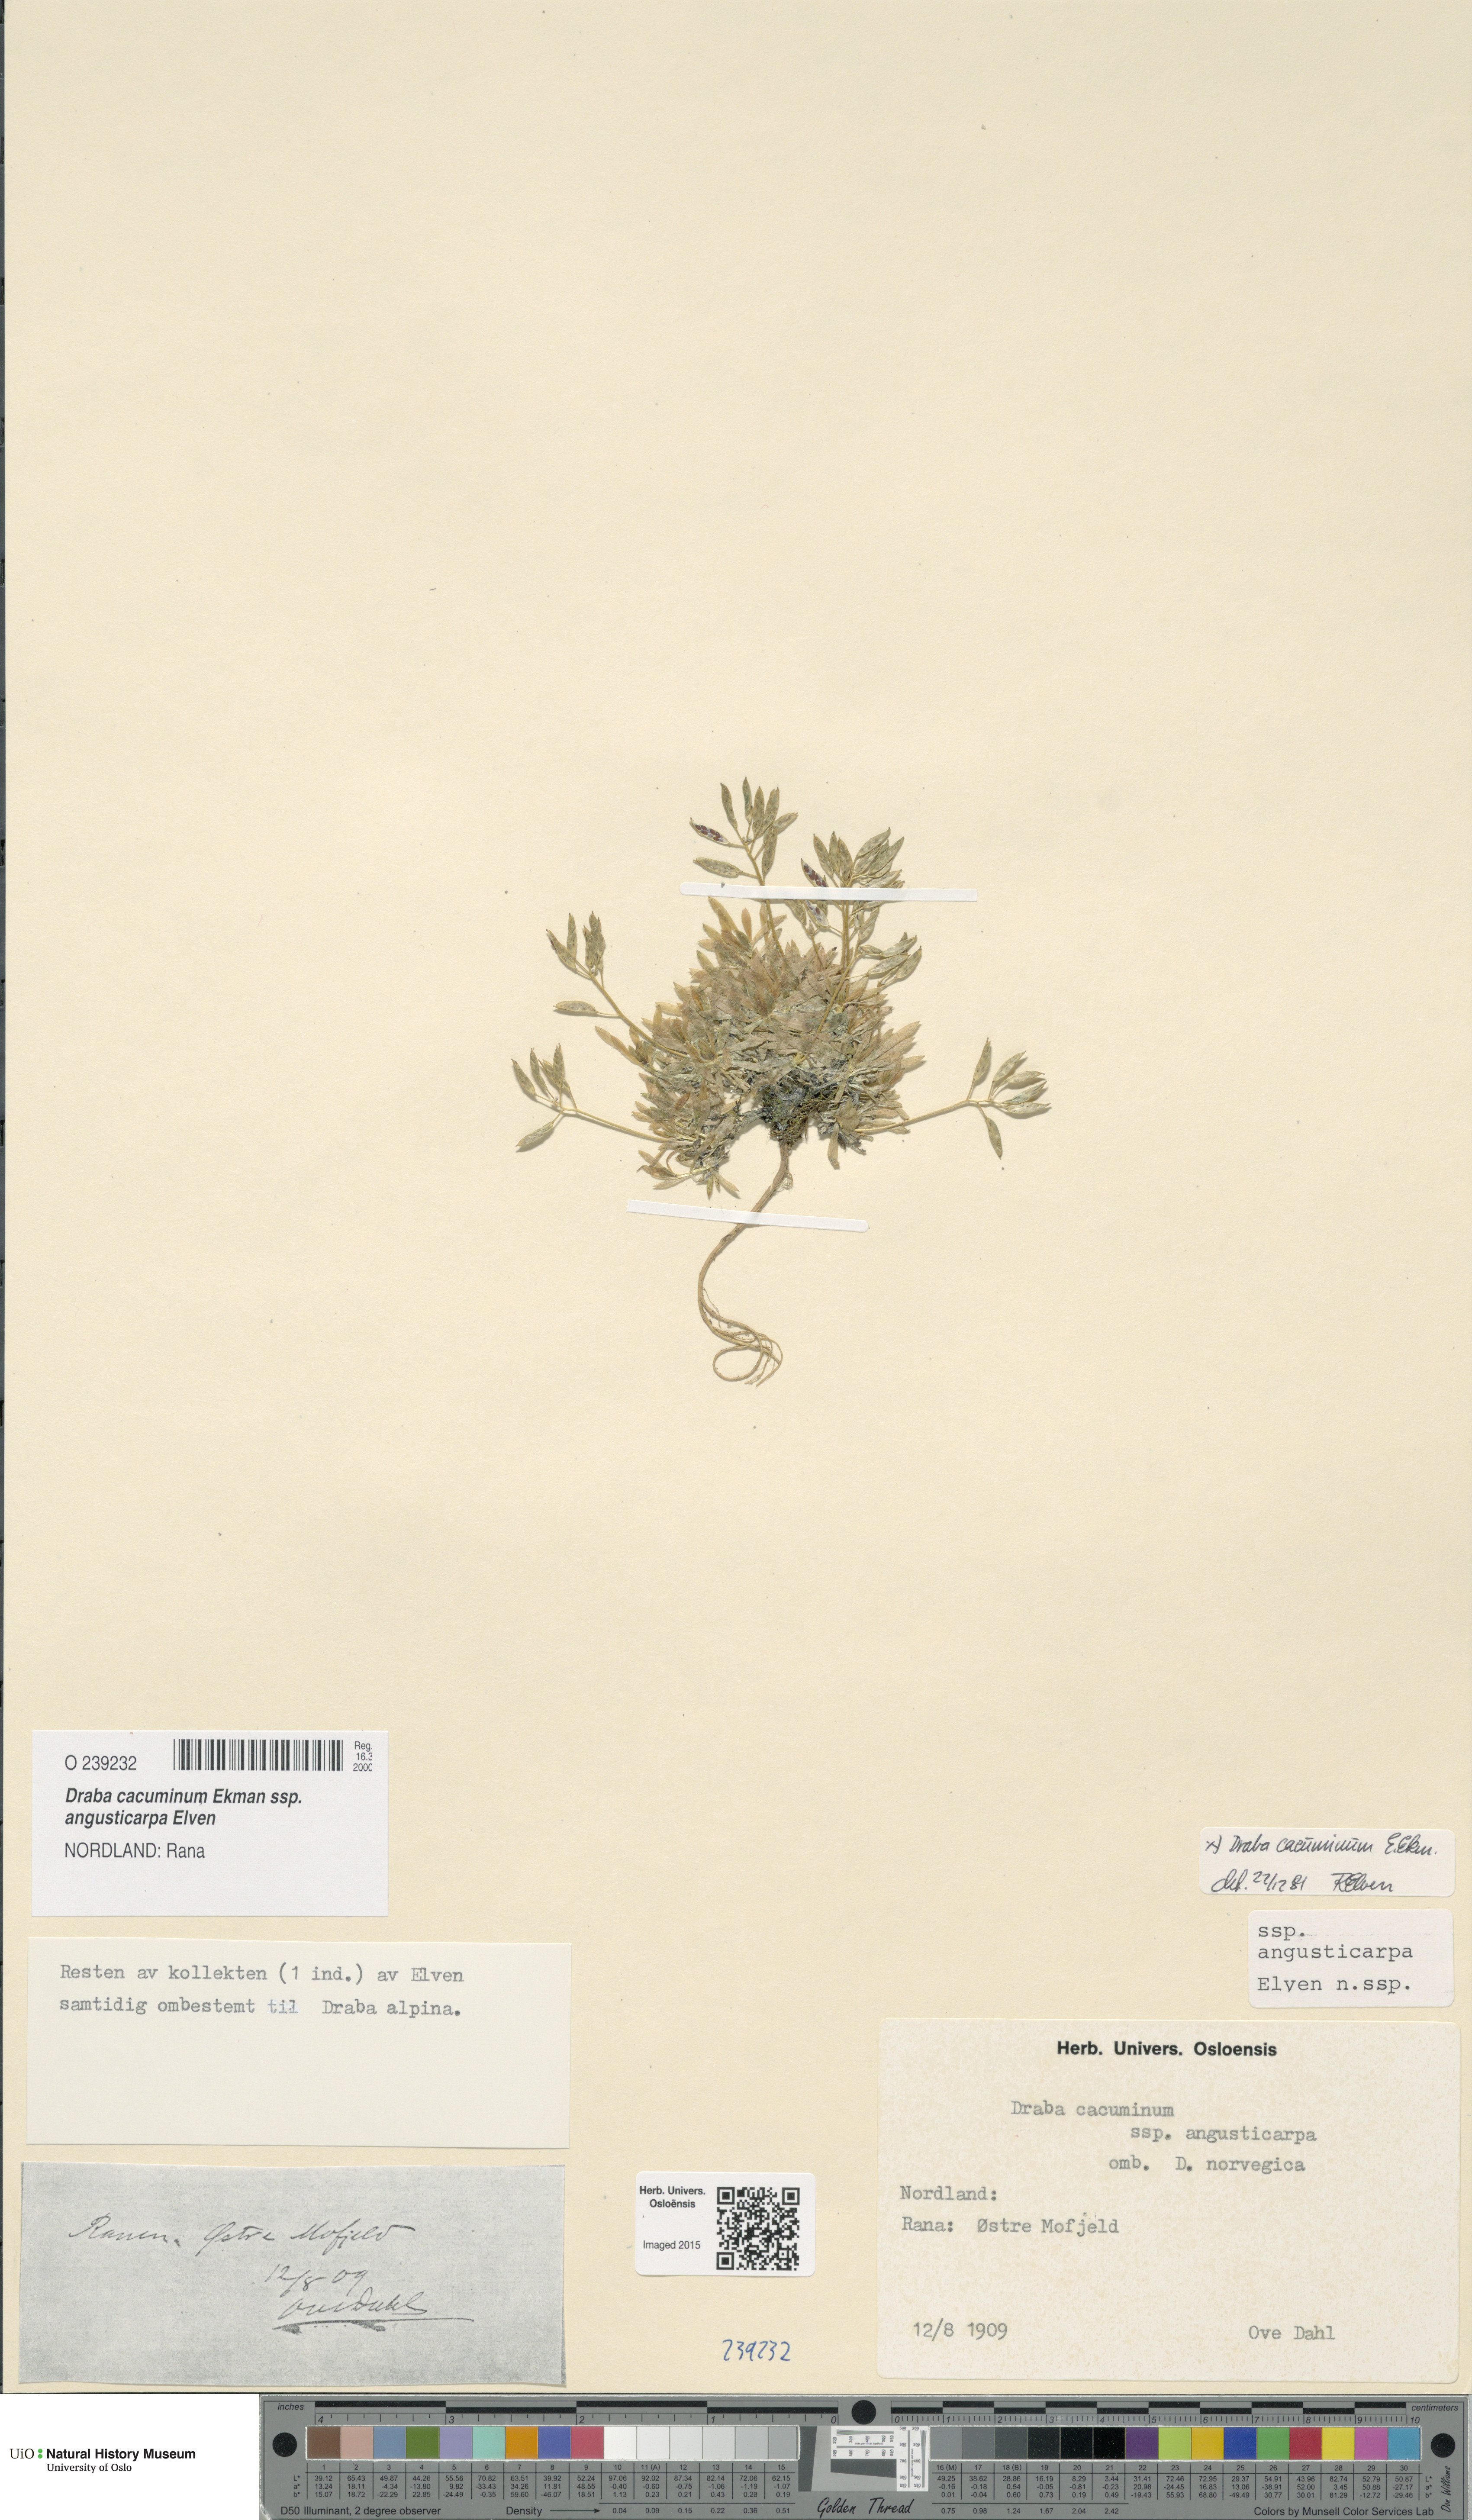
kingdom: Plantae
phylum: Tracheophyta
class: Magnoliopsida
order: Brassicales
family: Brassicaceae
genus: Draba
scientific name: Draba cacuminum
